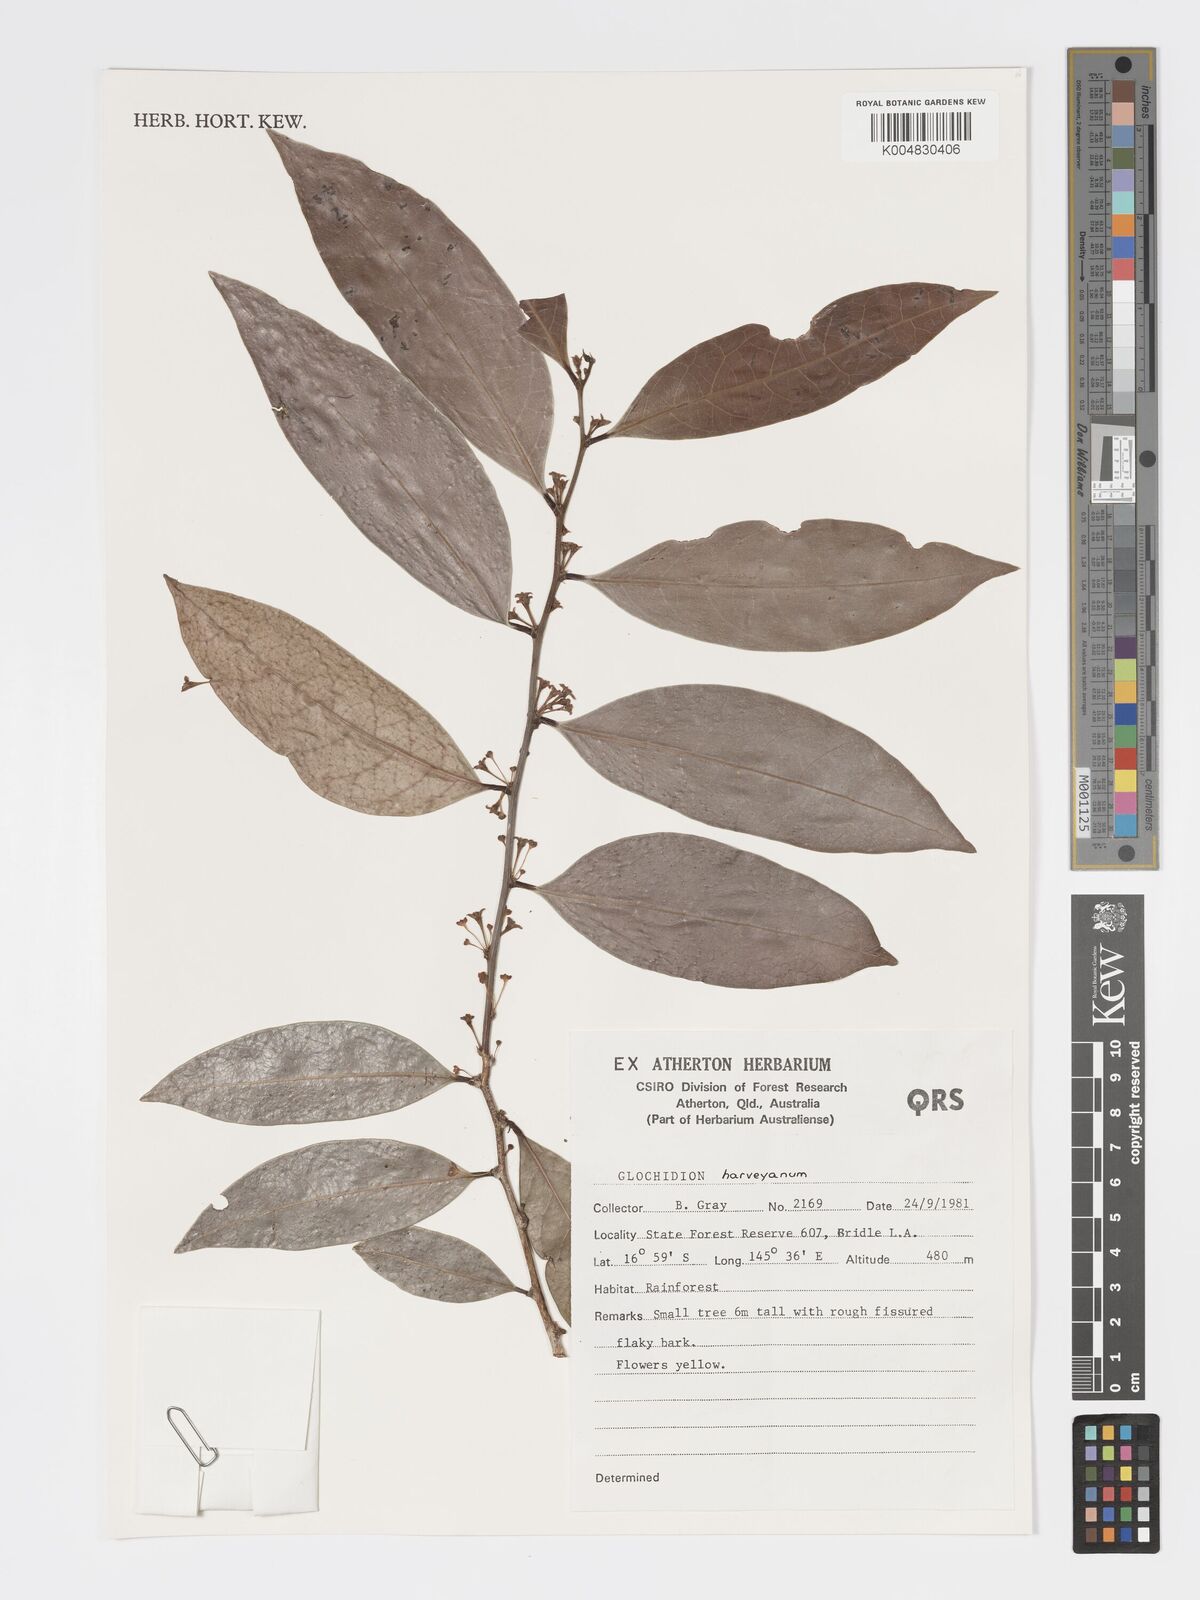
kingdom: Plantae
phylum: Tracheophyta
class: Magnoliopsida
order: Malpighiales
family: Phyllanthaceae
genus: Glochidion
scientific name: Glochidion harveyanum
